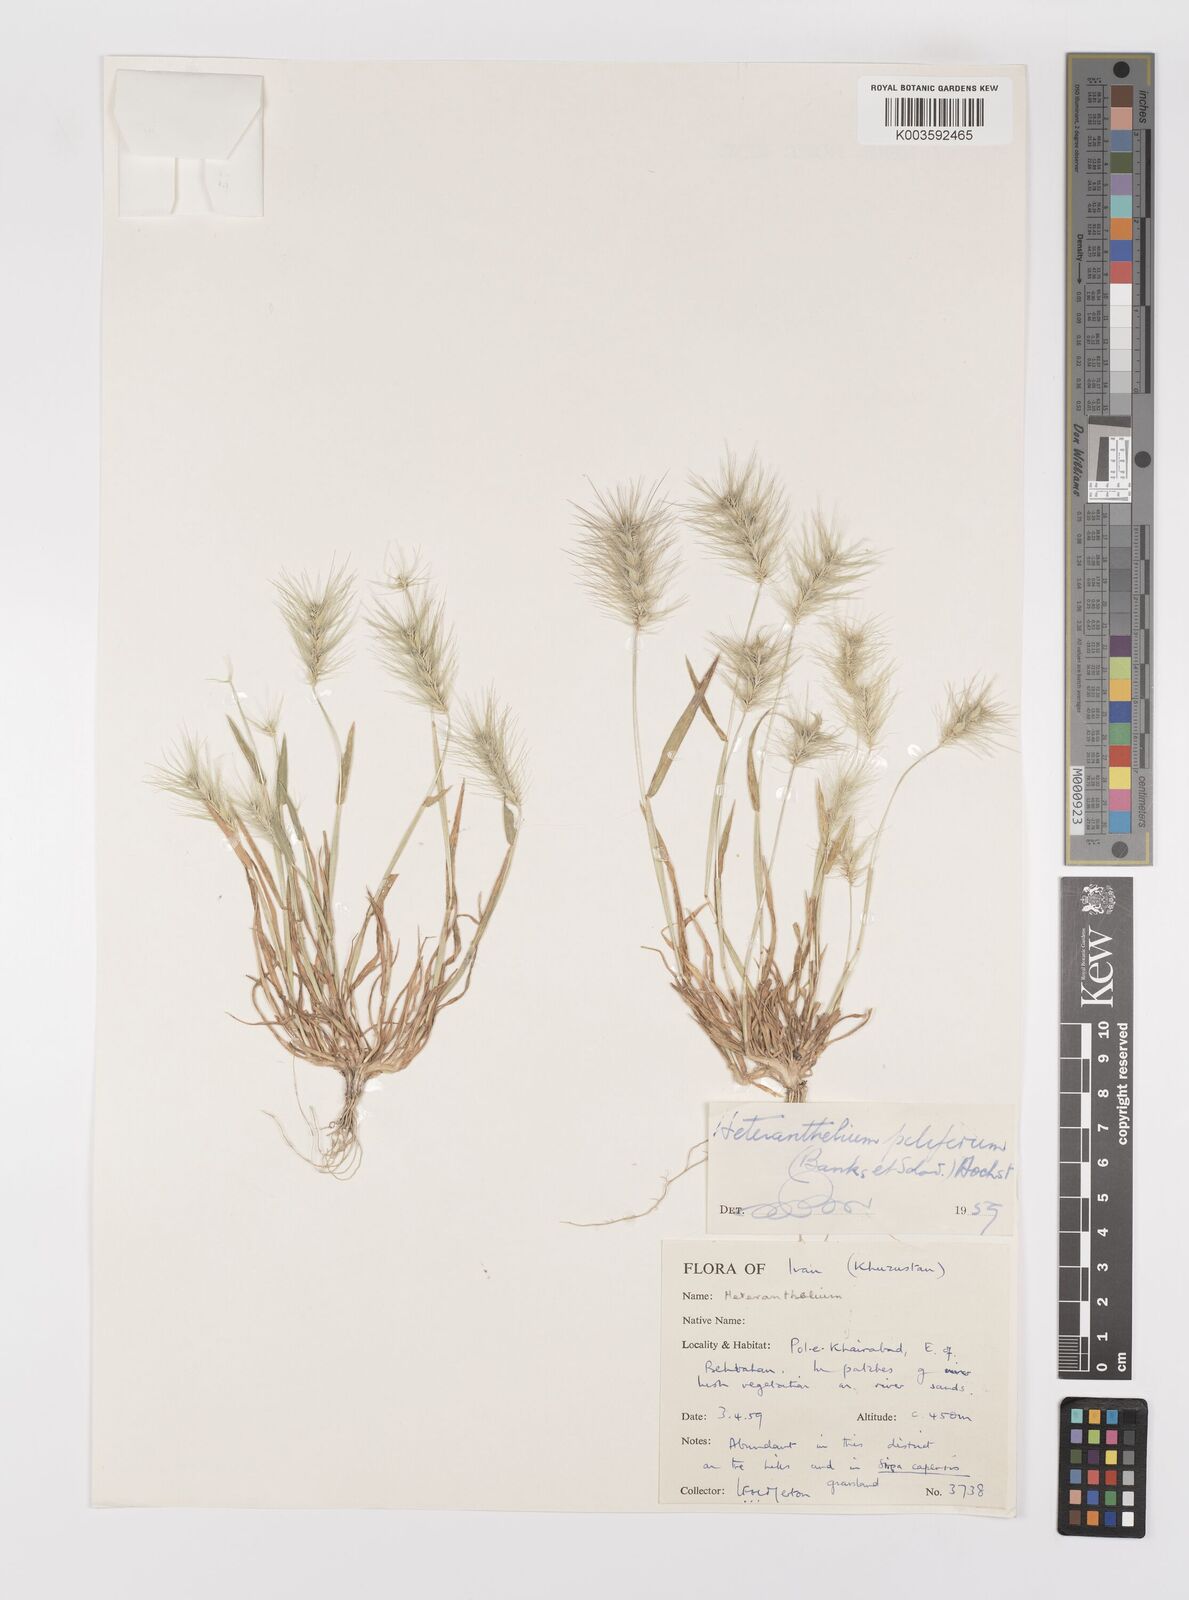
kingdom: Plantae
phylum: Tracheophyta
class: Liliopsida
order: Poales
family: Poaceae
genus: Heteranthelium
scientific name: Heteranthelium piliferum
